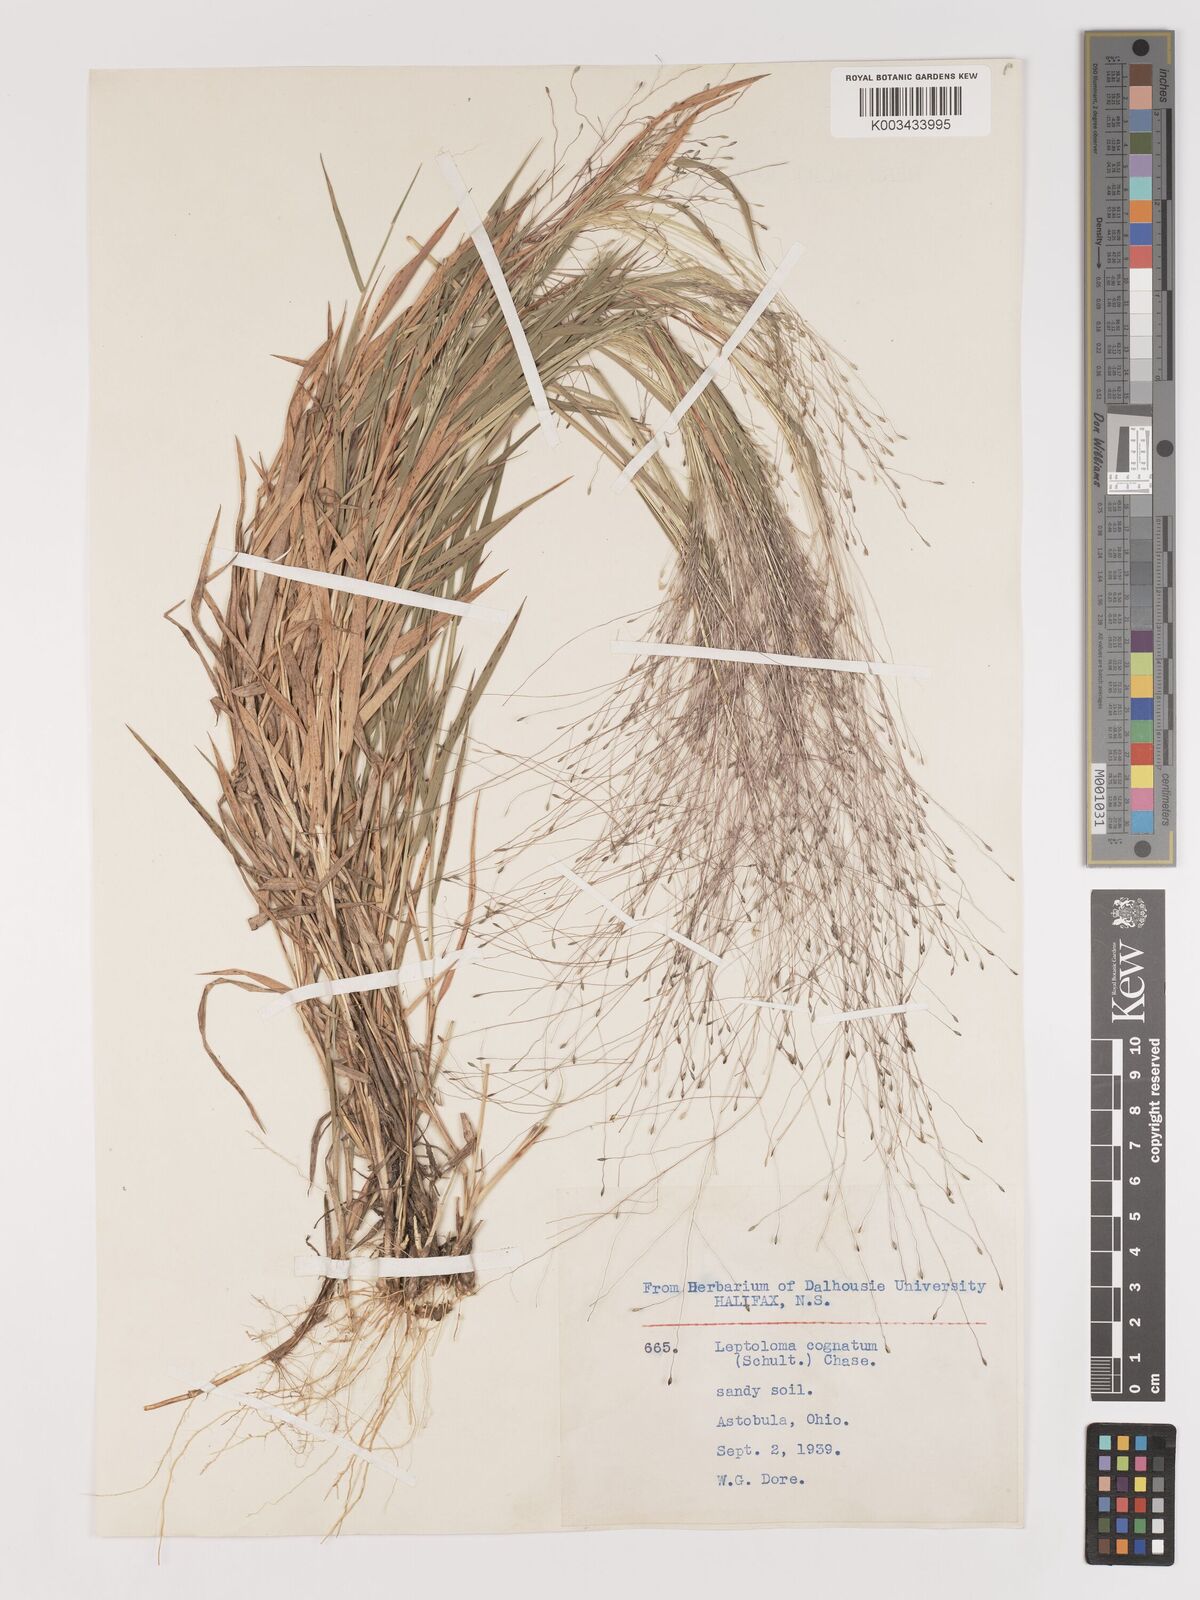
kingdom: Plantae
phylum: Tracheophyta
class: Liliopsida
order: Poales
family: Poaceae
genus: Digitaria
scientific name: Digitaria
